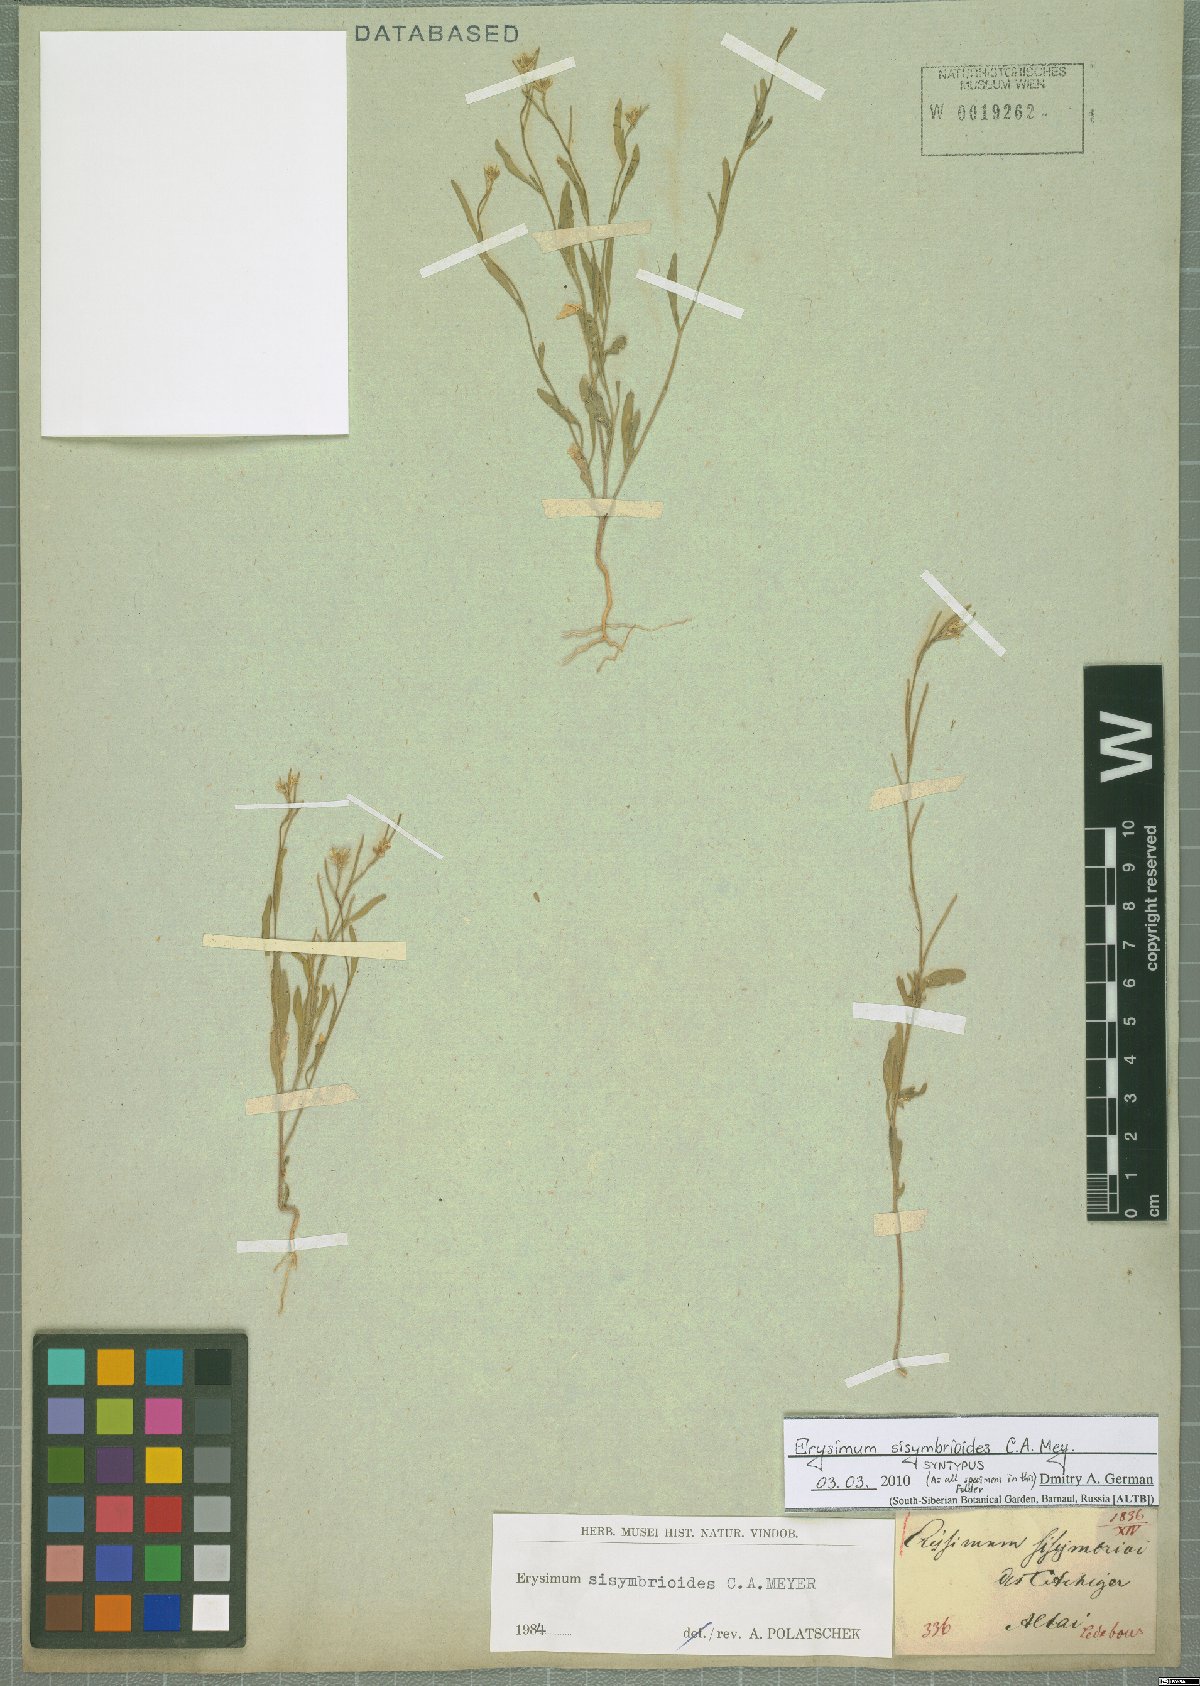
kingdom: Plantae
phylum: Tracheophyta
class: Magnoliopsida
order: Brassicales
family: Brassicaceae
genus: Erysimum
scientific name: Erysimum sisymbrioides
